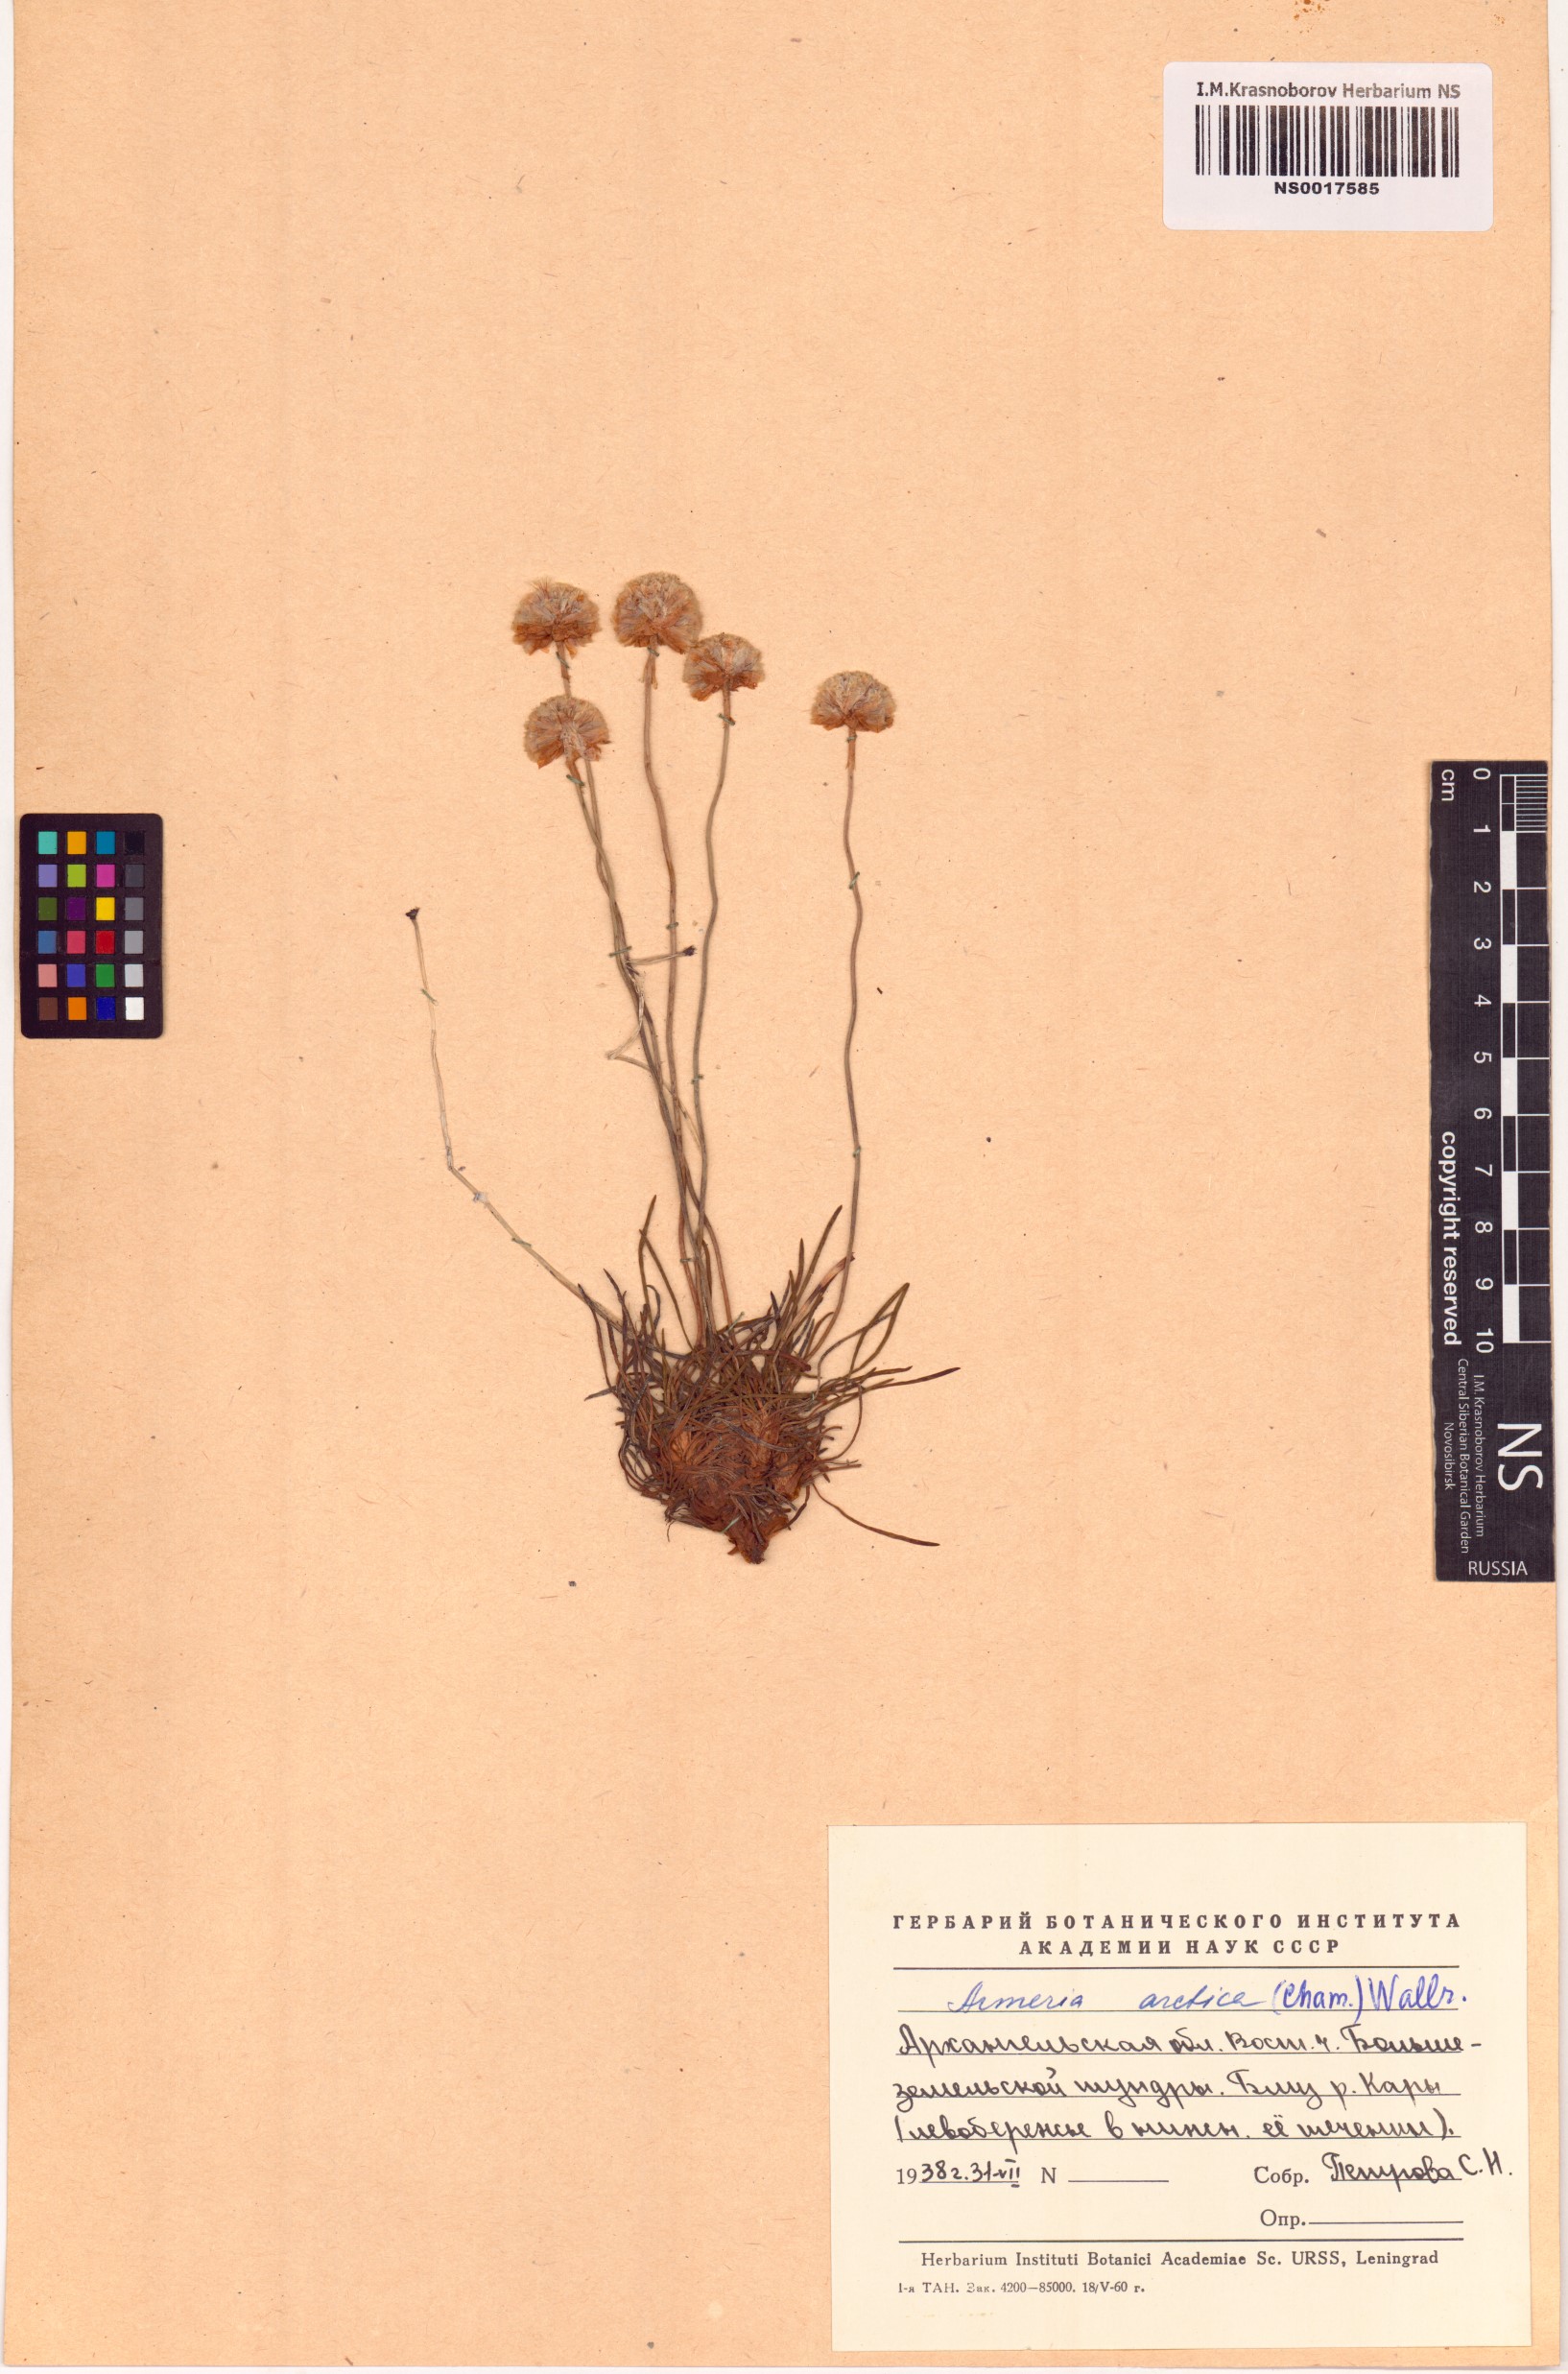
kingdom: Plantae
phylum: Tracheophyta
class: Magnoliopsida
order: Caryophyllales
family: Plumbaginaceae
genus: Armeria
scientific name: Armeria maritima
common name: Thrift
